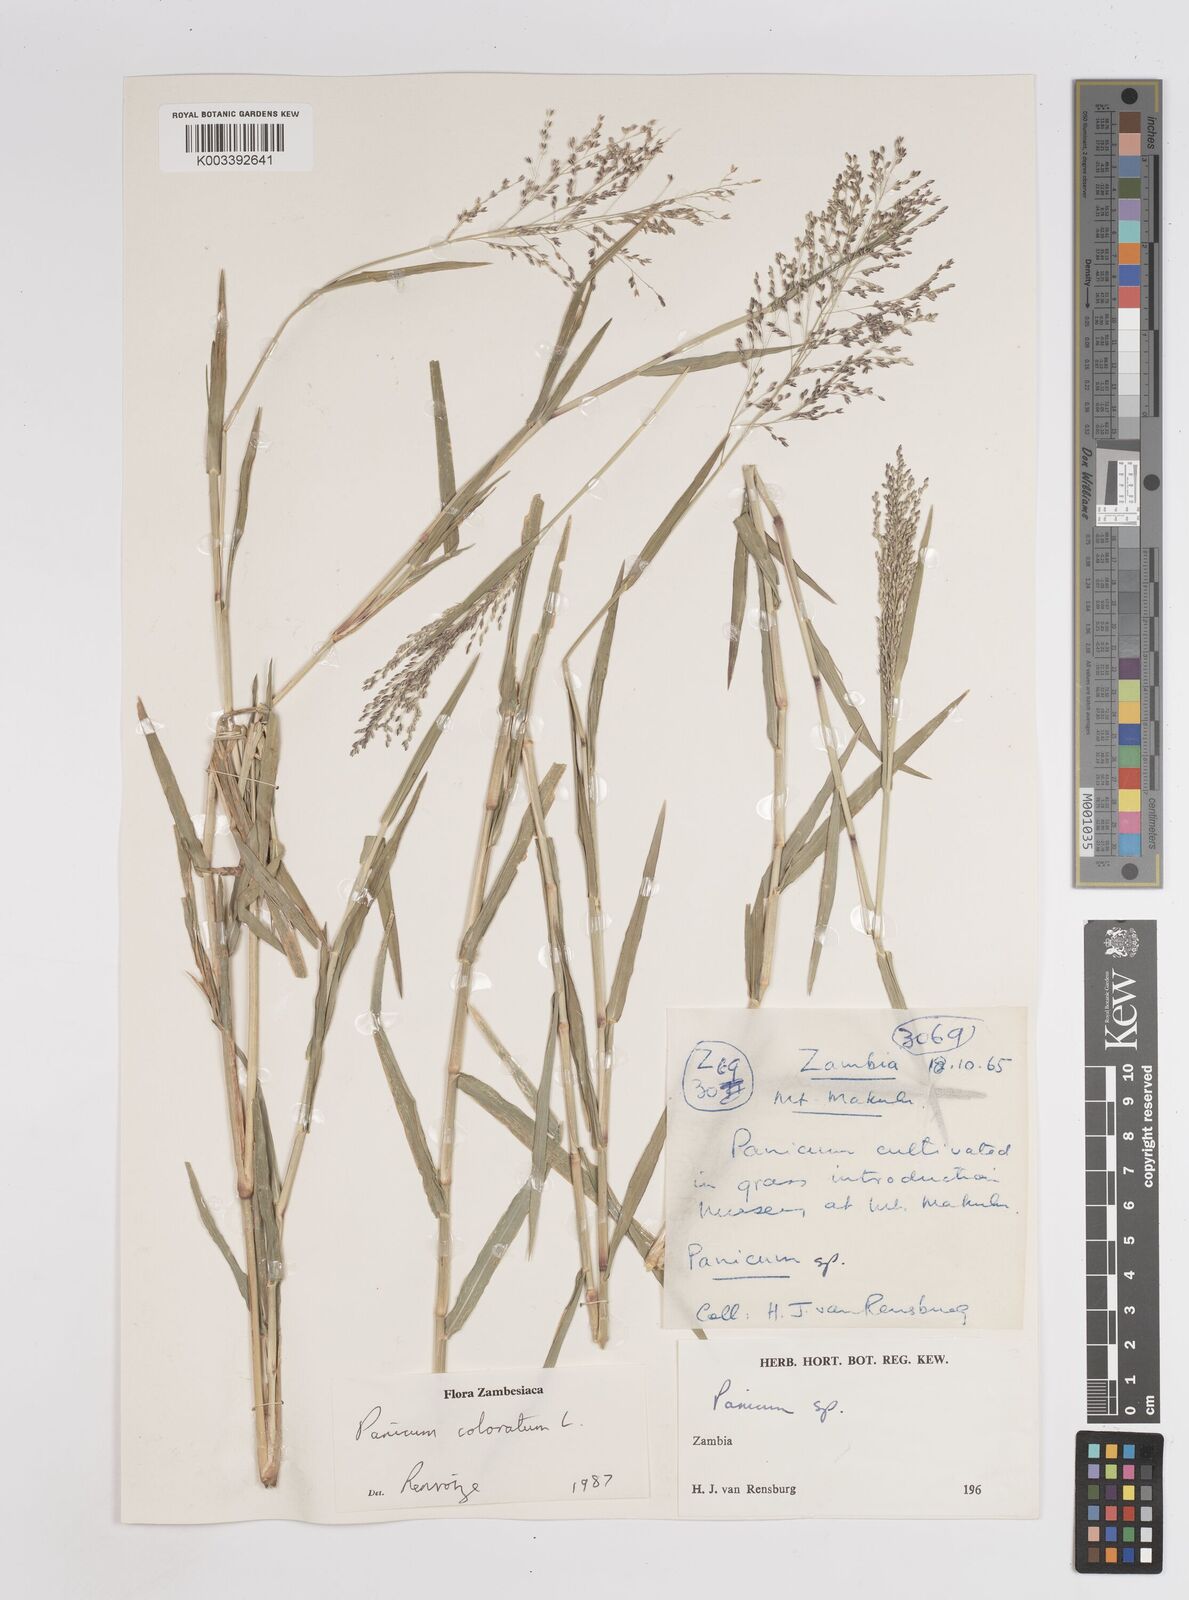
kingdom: Plantae
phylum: Tracheophyta
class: Liliopsida
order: Poales
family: Poaceae
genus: Panicum
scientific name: Panicum
